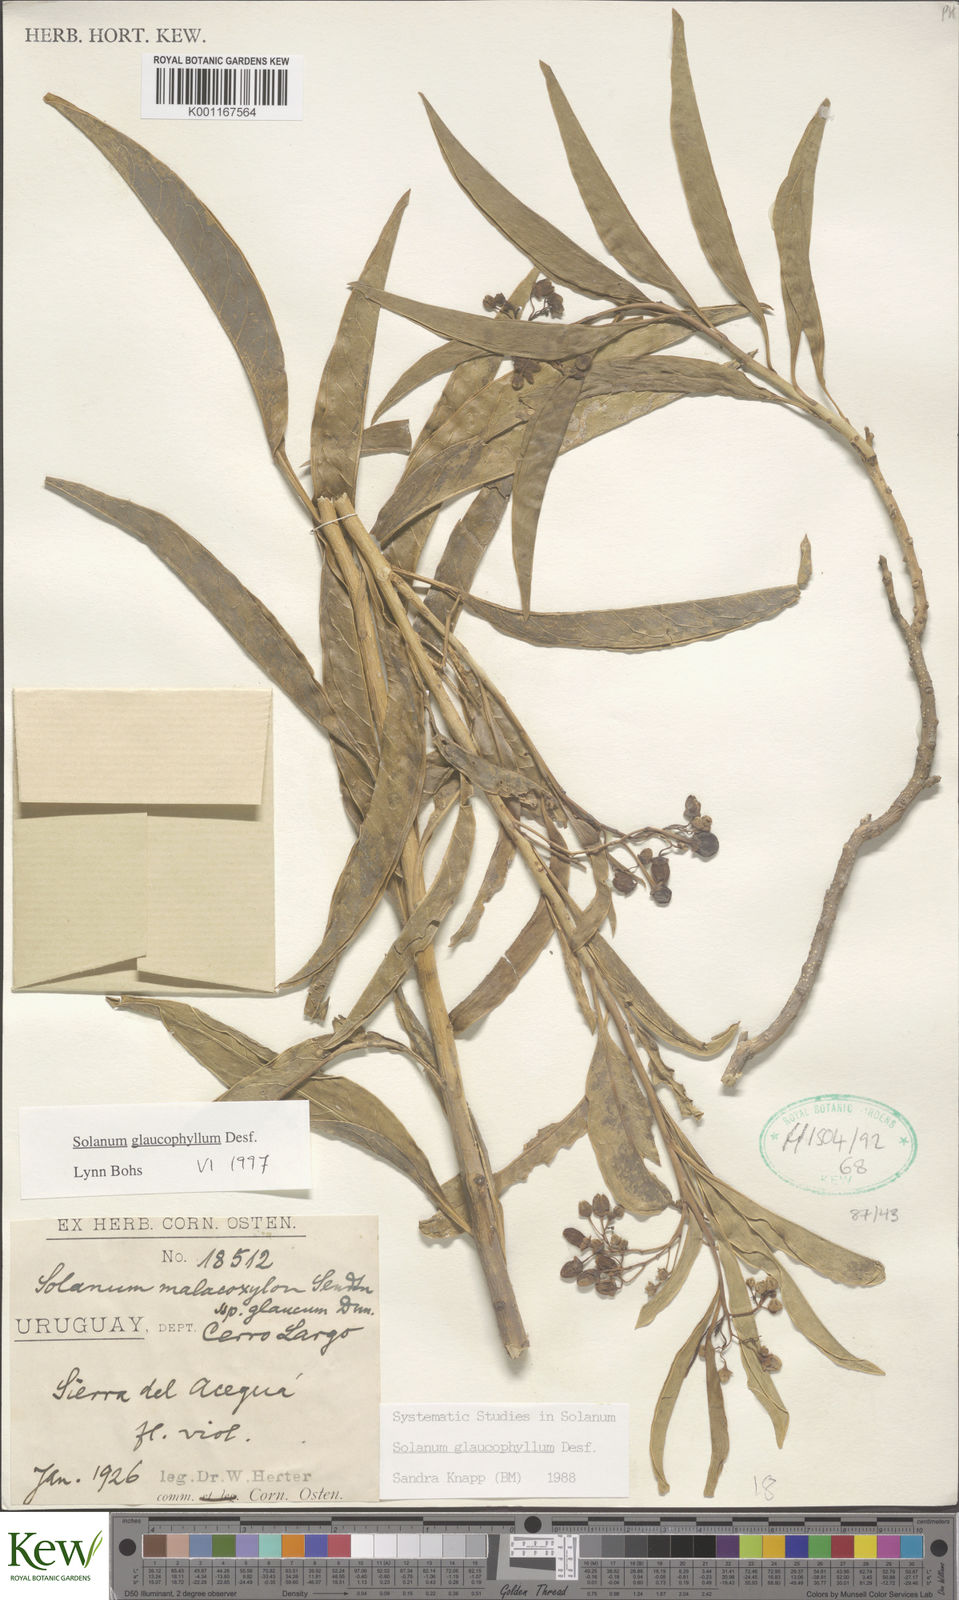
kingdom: Plantae
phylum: Tracheophyta
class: Magnoliopsida
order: Solanales
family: Solanaceae
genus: Solanum
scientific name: Solanum glaucophyllum
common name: Waxyleaf nightshade
